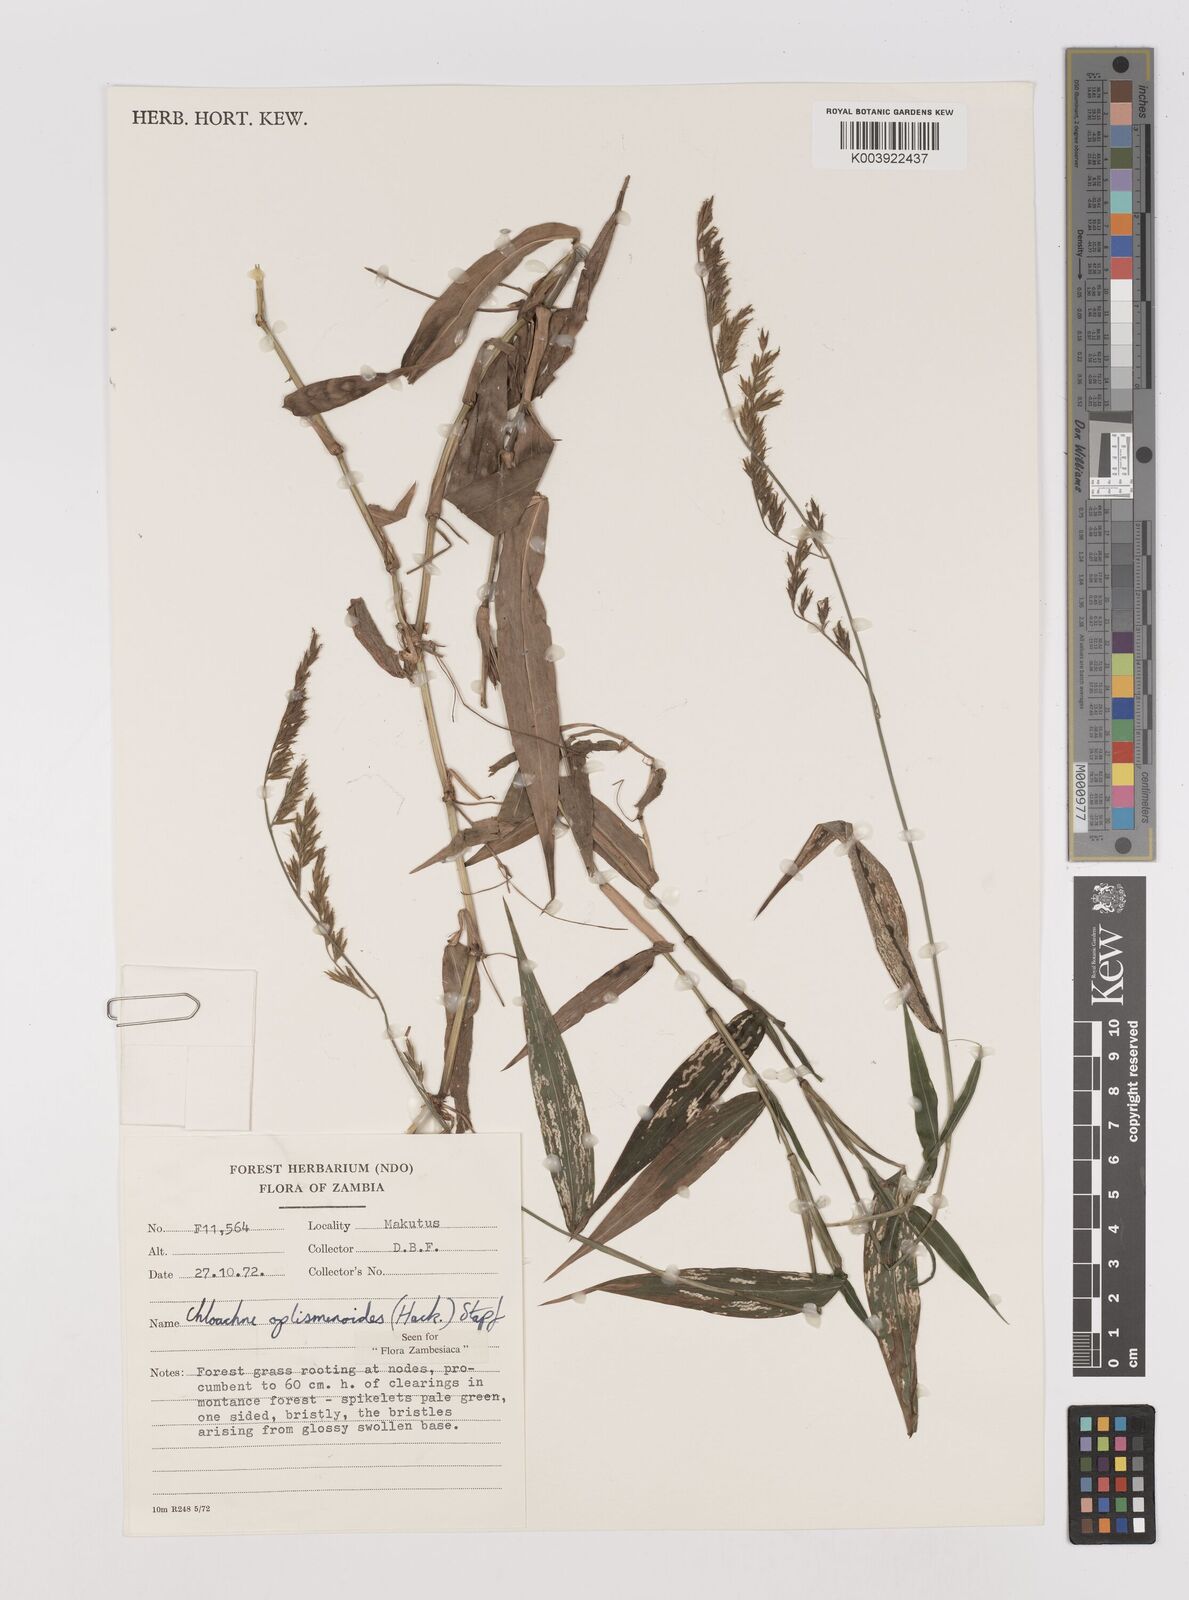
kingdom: Plantae
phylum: Tracheophyta
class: Liliopsida
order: Poales
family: Poaceae
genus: Poecilostachys
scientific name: Poecilostachys oplismenoides
